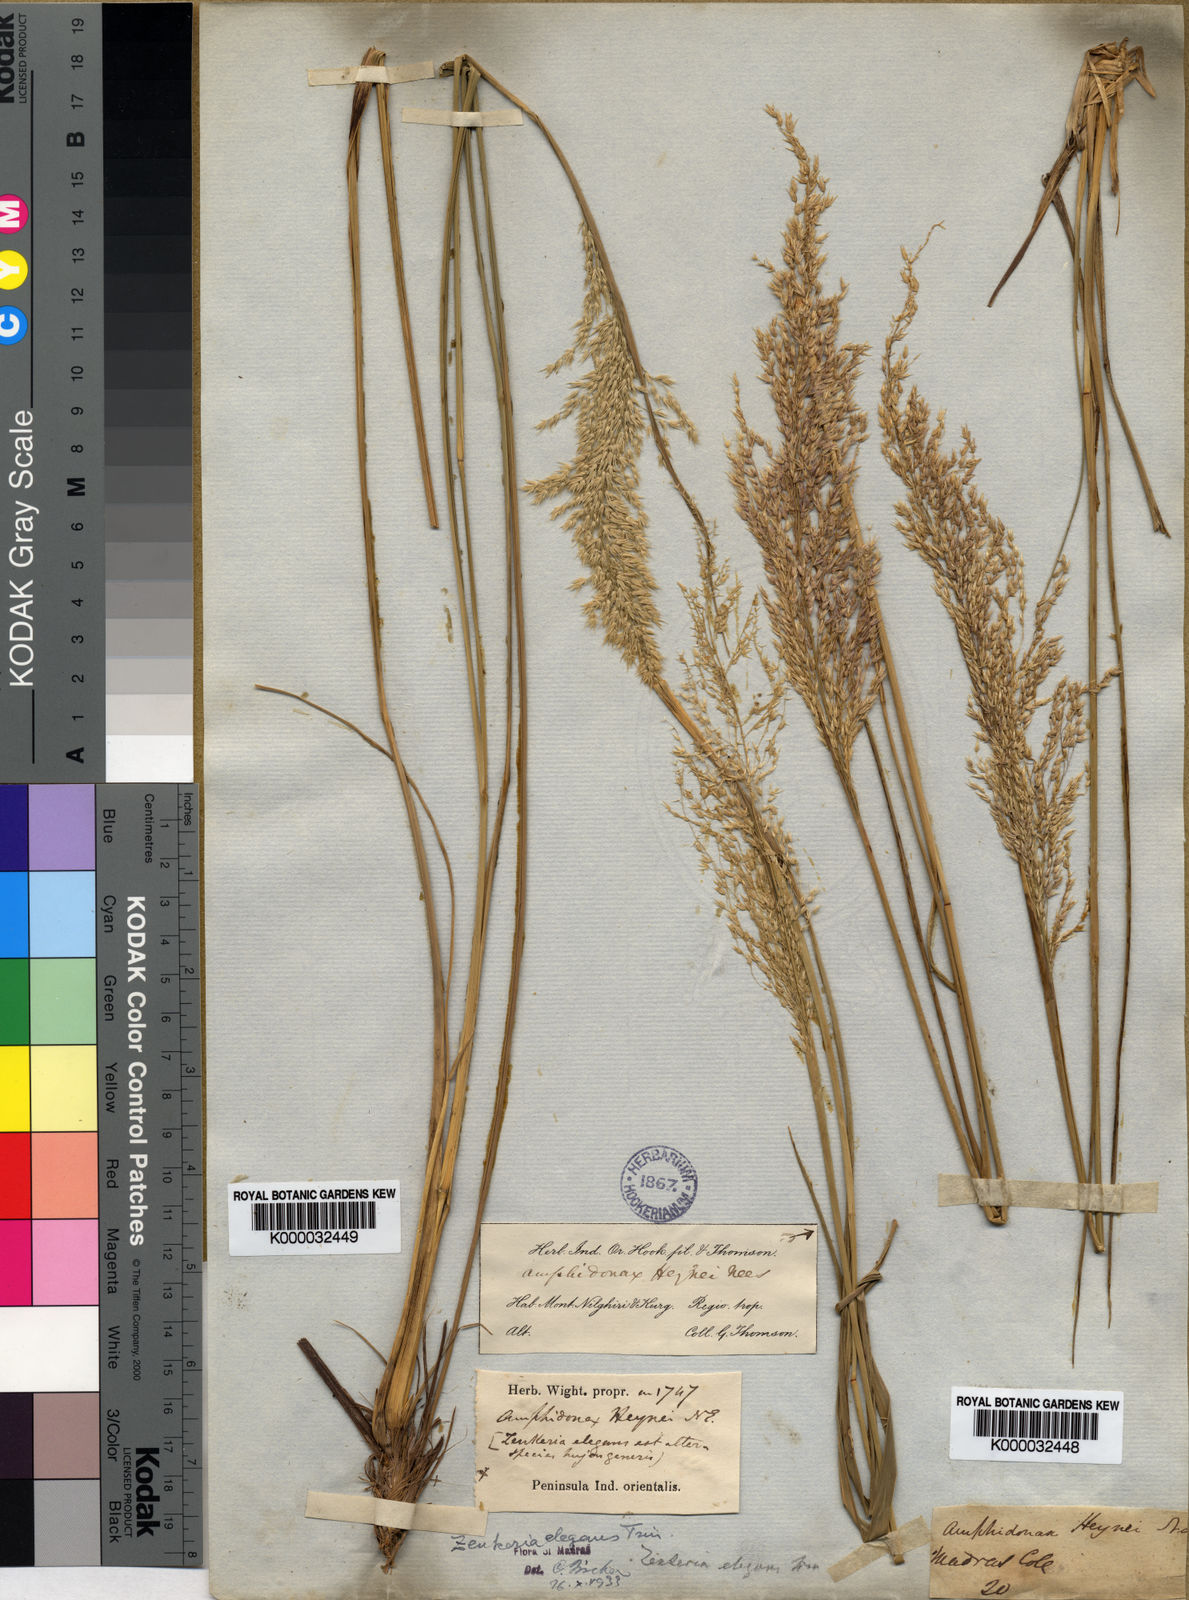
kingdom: Plantae
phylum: Tracheophyta
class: Liliopsida
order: Poales
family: Poaceae
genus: Zenkeria
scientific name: Zenkeria elegans
